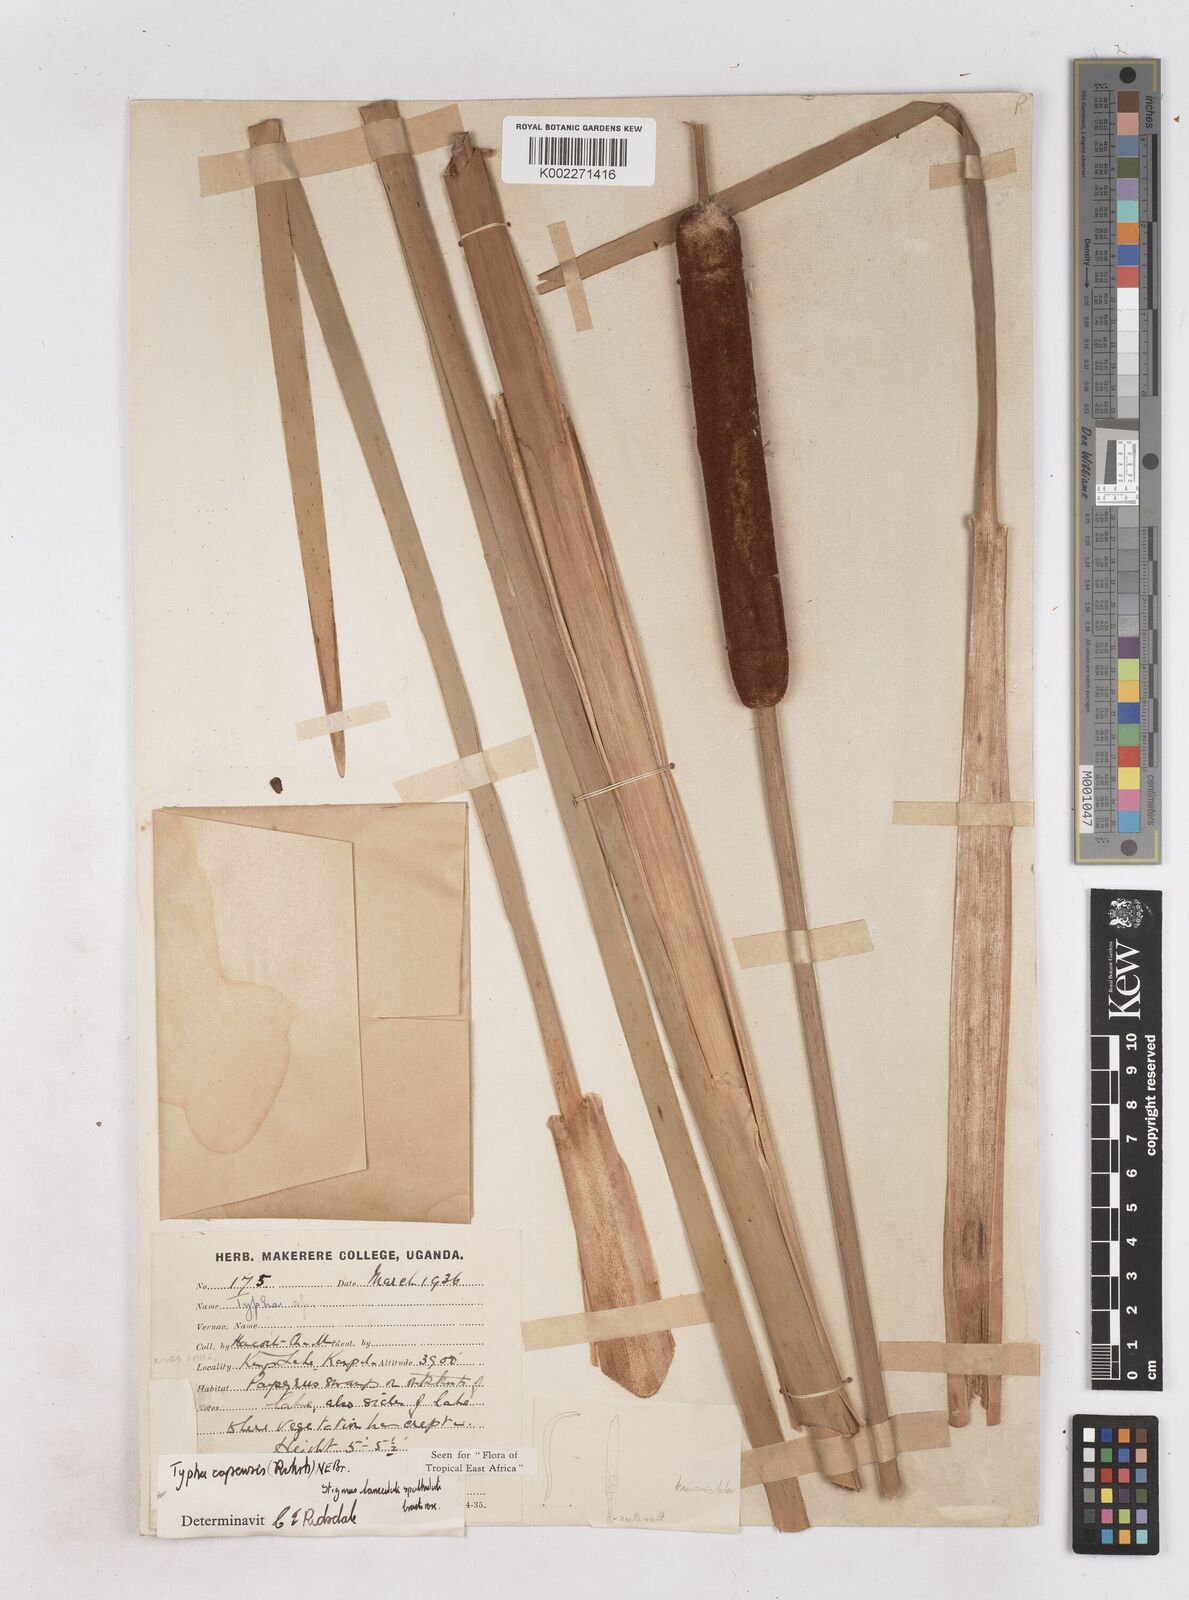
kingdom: Plantae
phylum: Tracheophyta
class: Liliopsida
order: Poales
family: Typhaceae
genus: Typha
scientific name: Typha capensis
